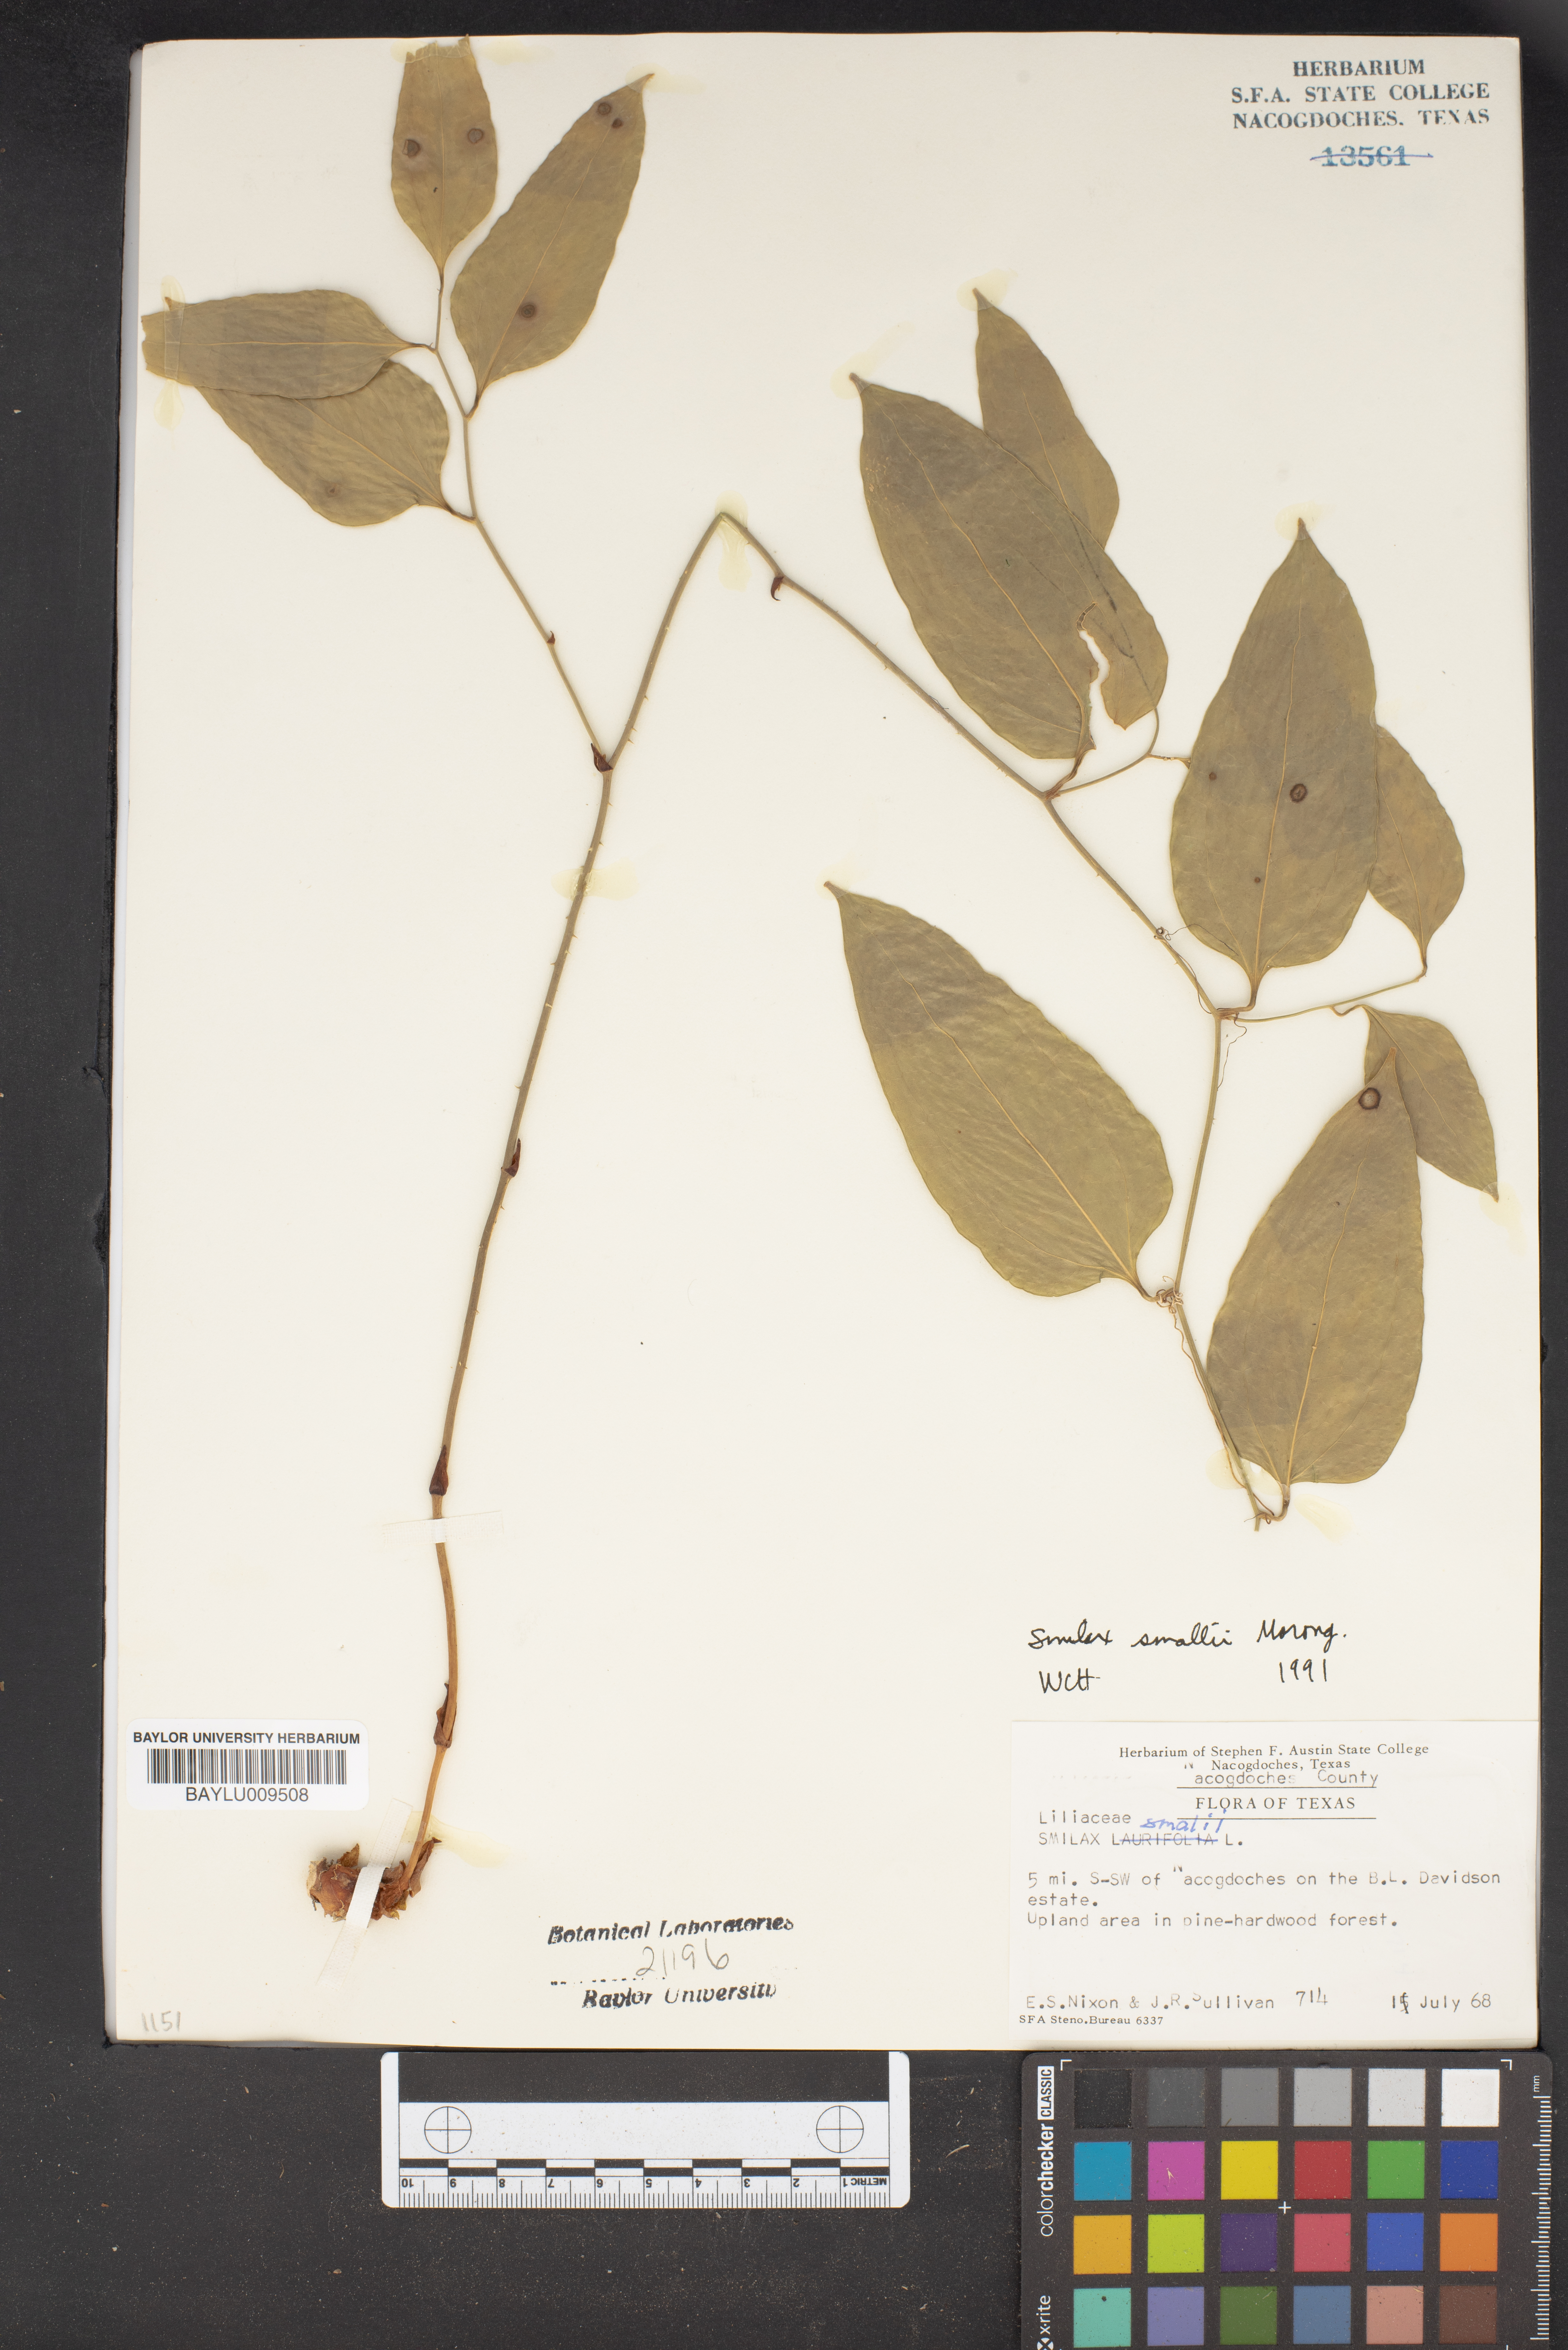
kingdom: Plantae
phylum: Tracheophyta
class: Liliopsida
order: Liliales
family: Smilacaceae
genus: Smilax
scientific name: Smilax maritima
